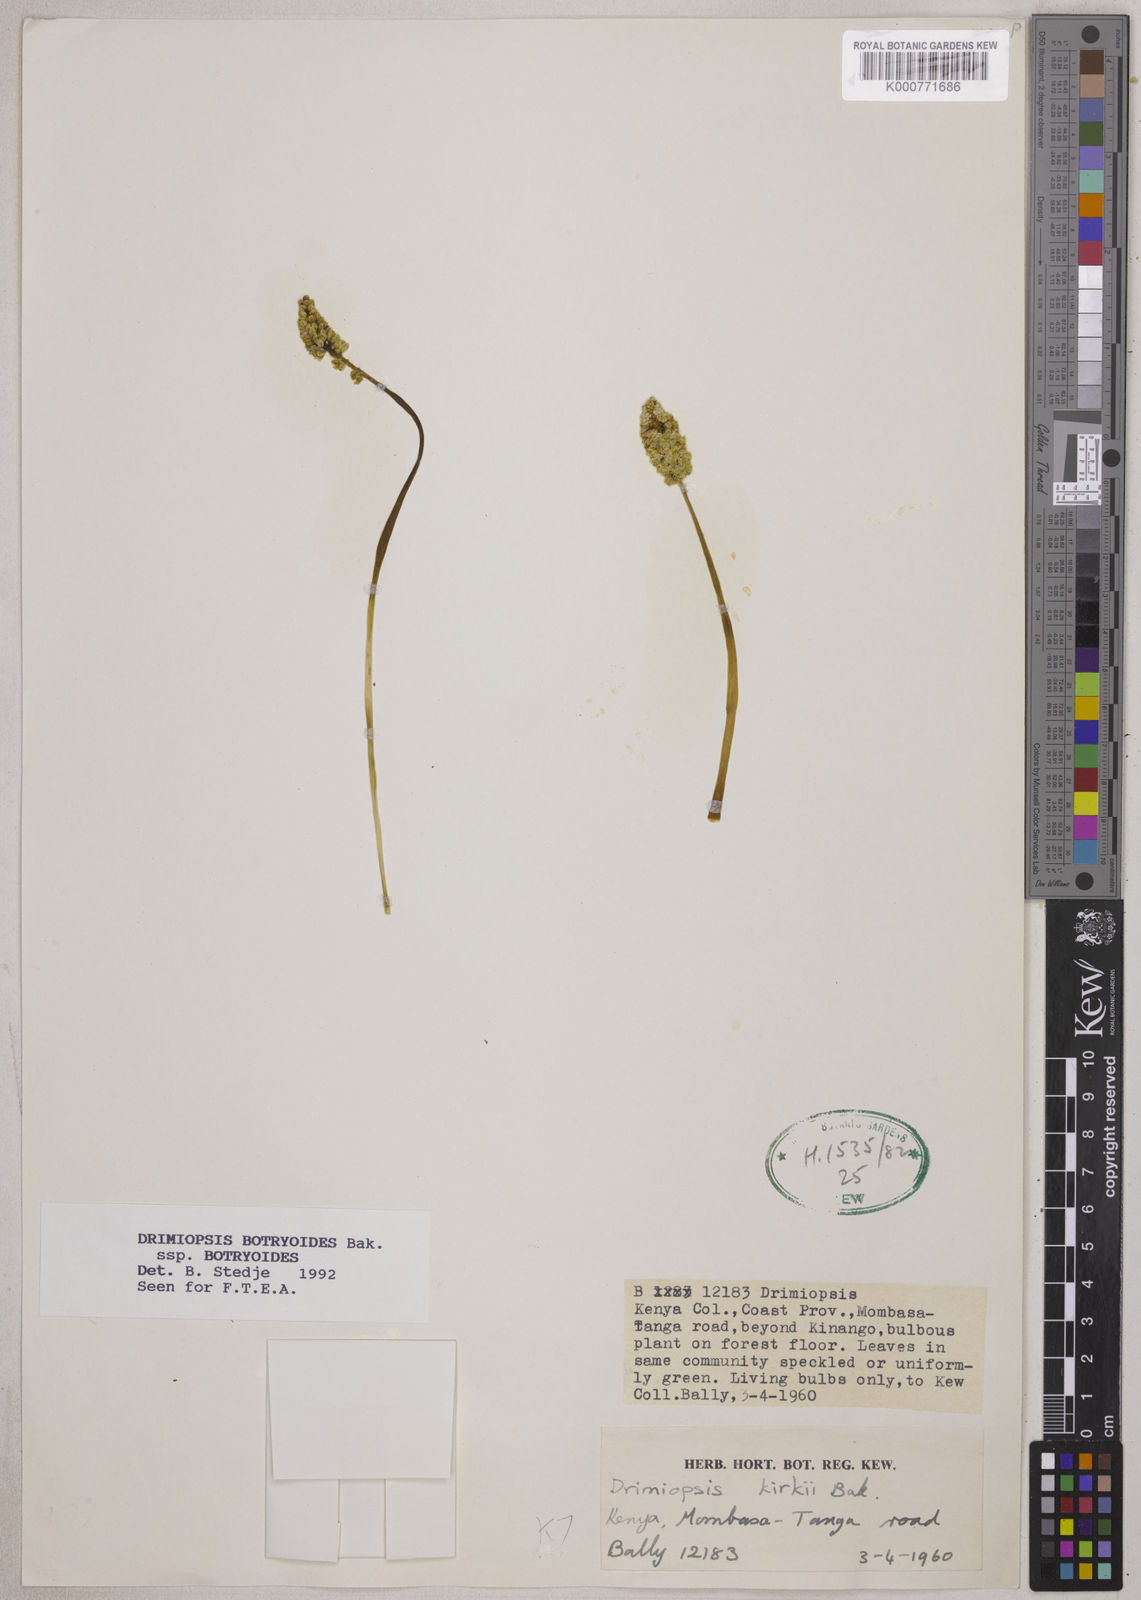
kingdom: Plantae
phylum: Tracheophyta
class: Liliopsida
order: Asparagales
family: Asparagaceae
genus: Drimiopsis
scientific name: Drimiopsis botryoides
